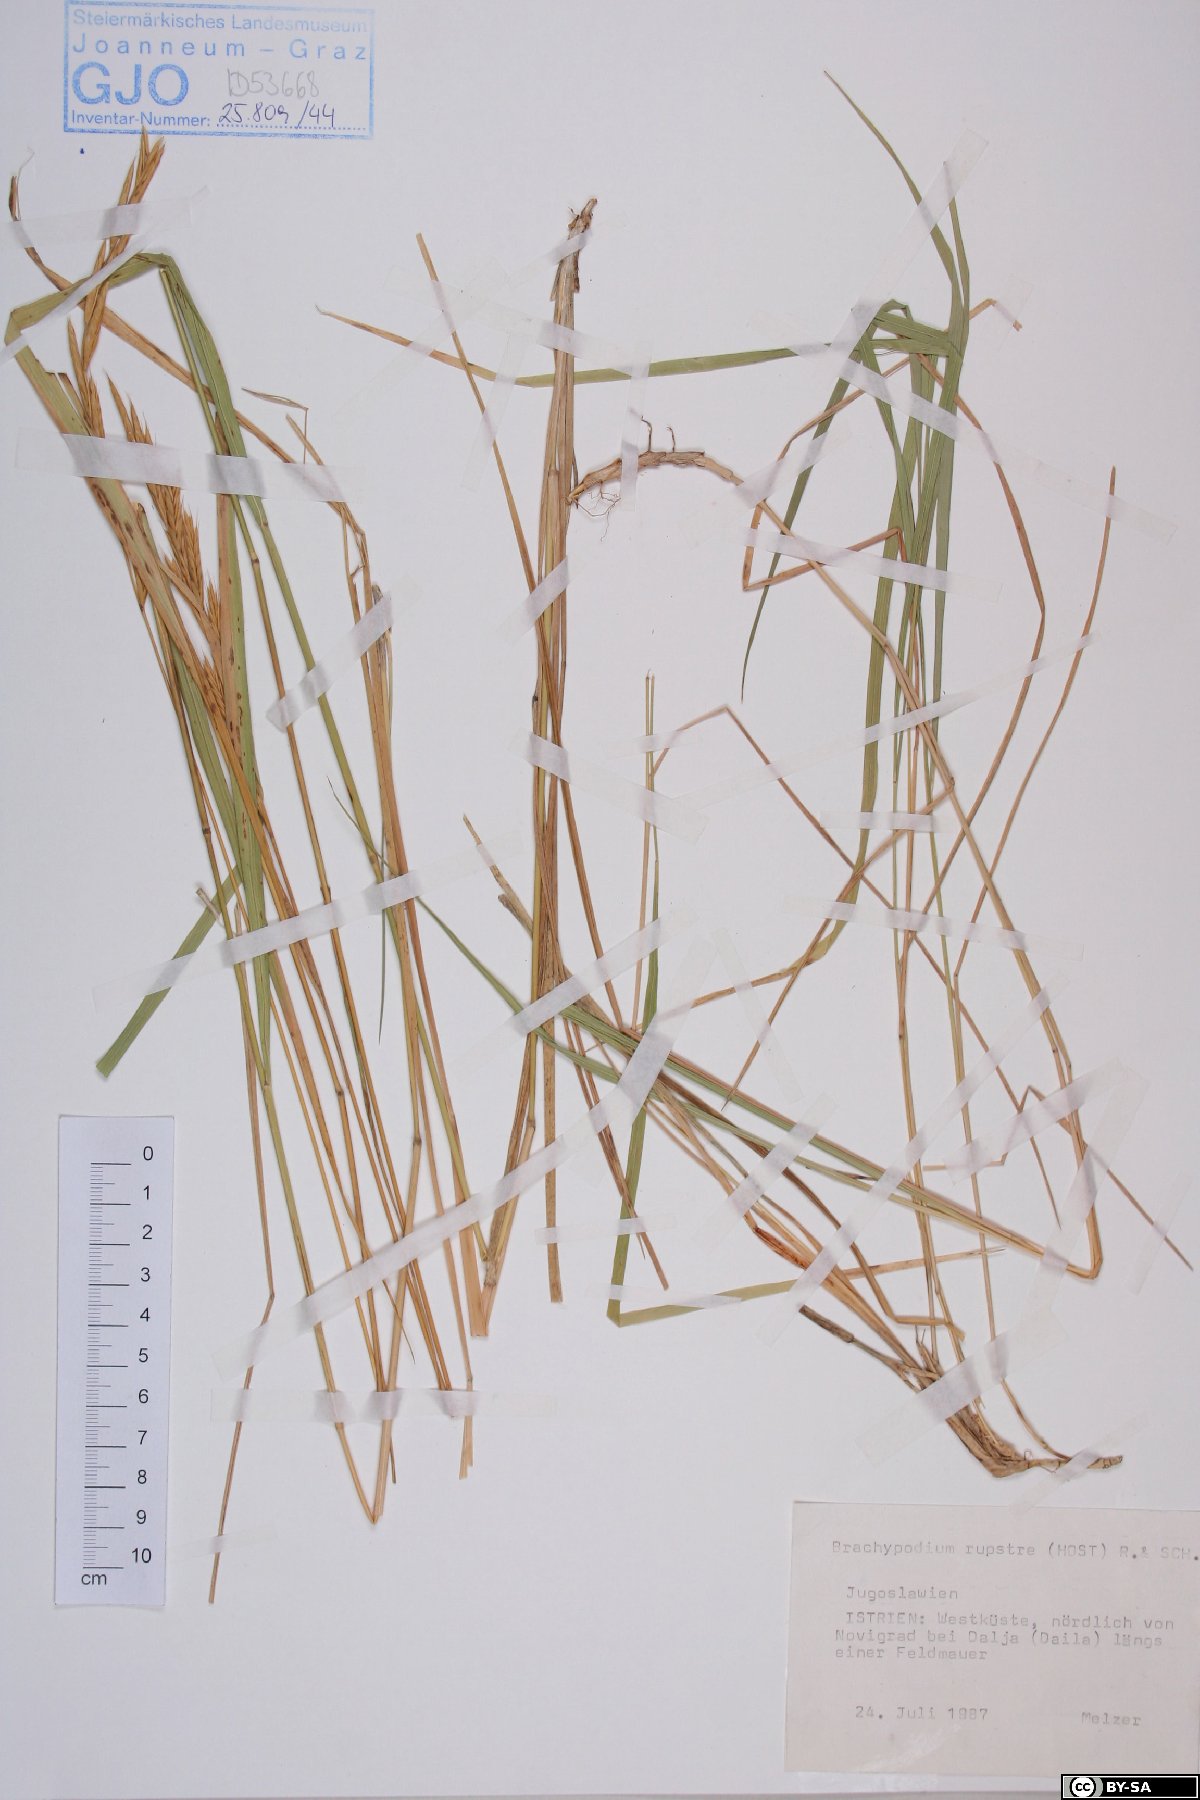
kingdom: Plantae
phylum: Tracheophyta
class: Liliopsida
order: Poales
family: Poaceae
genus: Brachypodium
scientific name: Brachypodium pinnatum
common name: Tor grass
